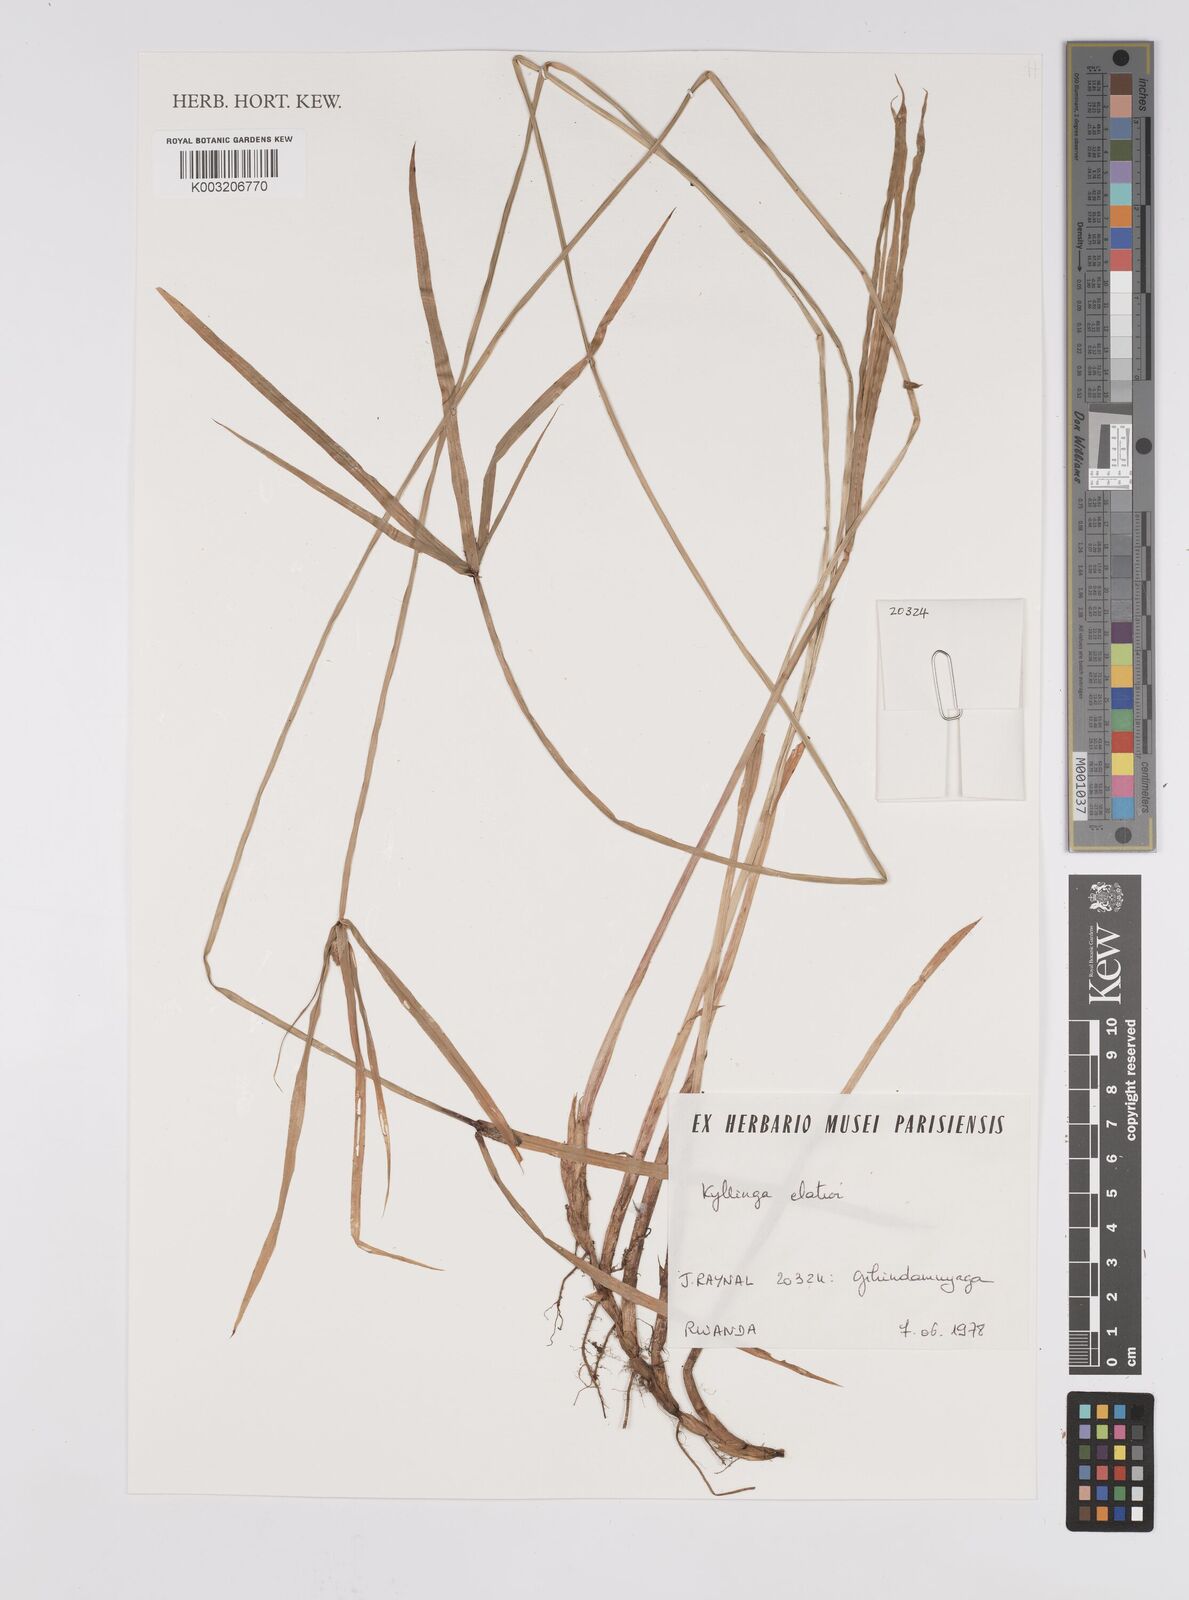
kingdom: Plantae
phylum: Tracheophyta
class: Liliopsida
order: Poales
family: Cyperaceae
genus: Cyperus
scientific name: Cyperus
